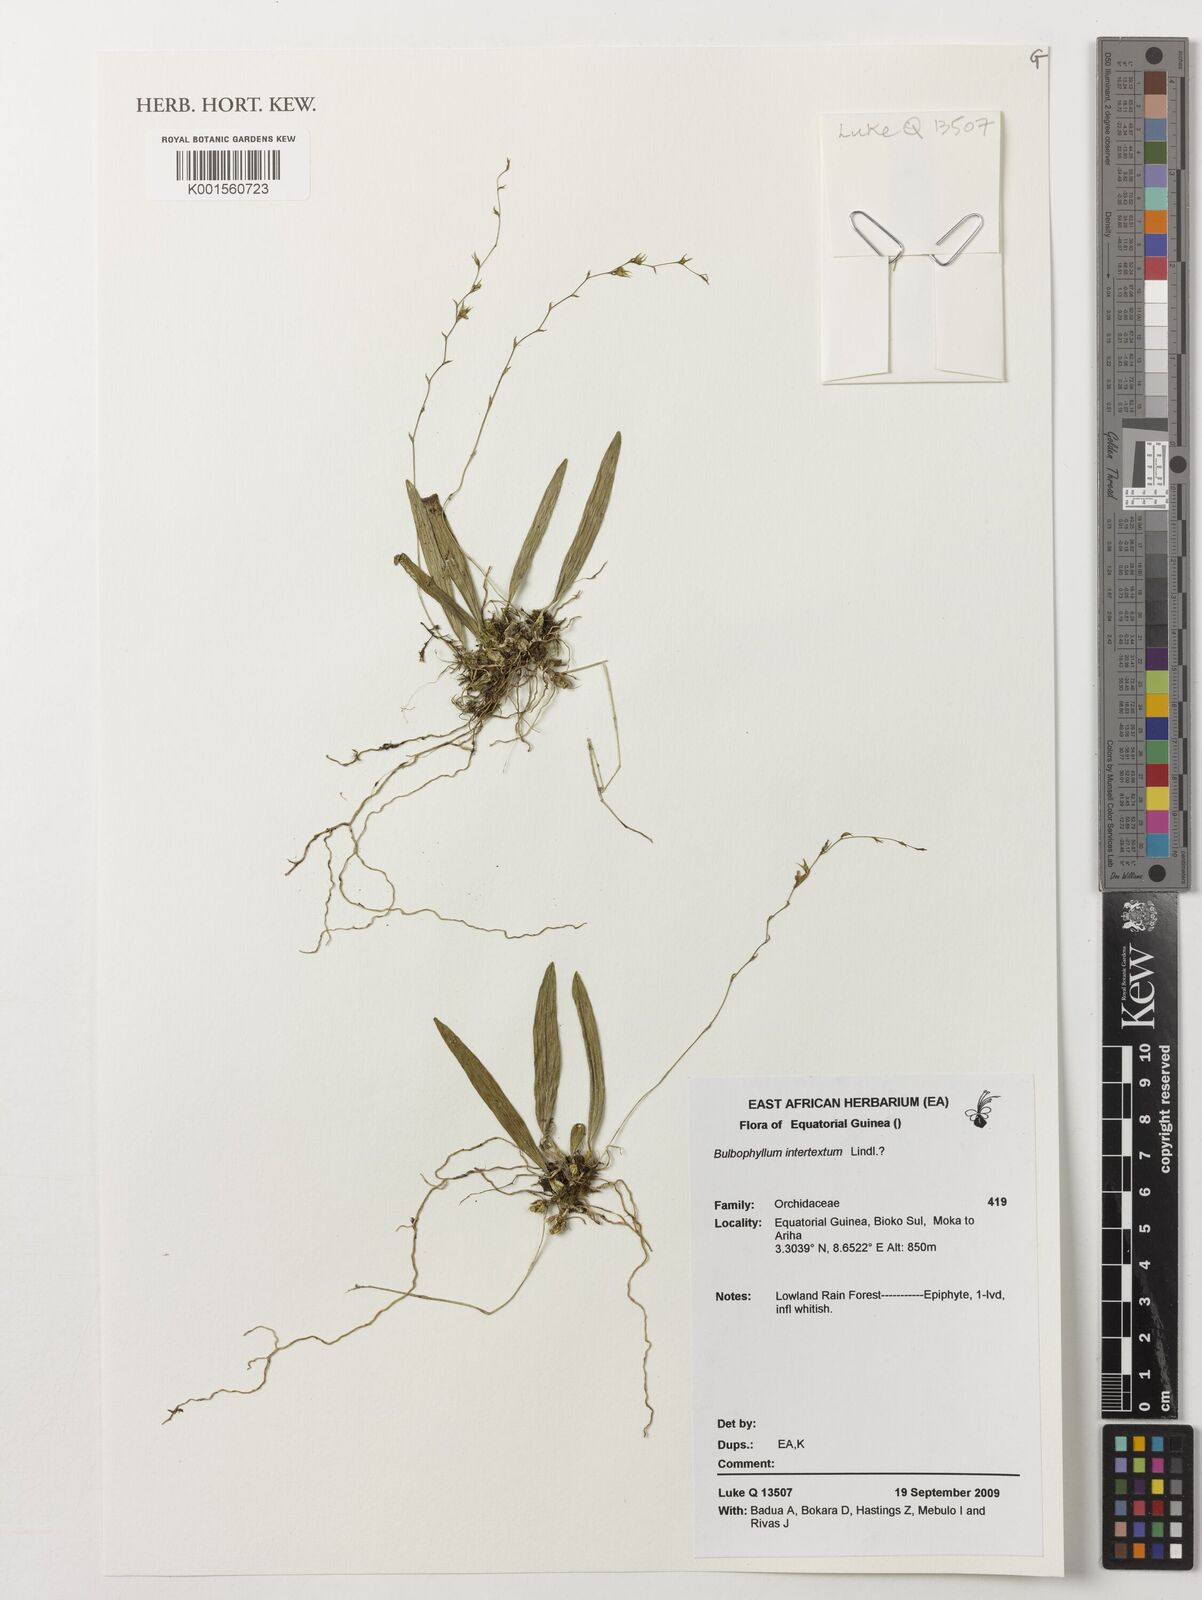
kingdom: Plantae
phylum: Tracheophyta
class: Liliopsida
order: Asparagales
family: Orchidaceae
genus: Bulbophyllum
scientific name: Bulbophyllum intertextum
